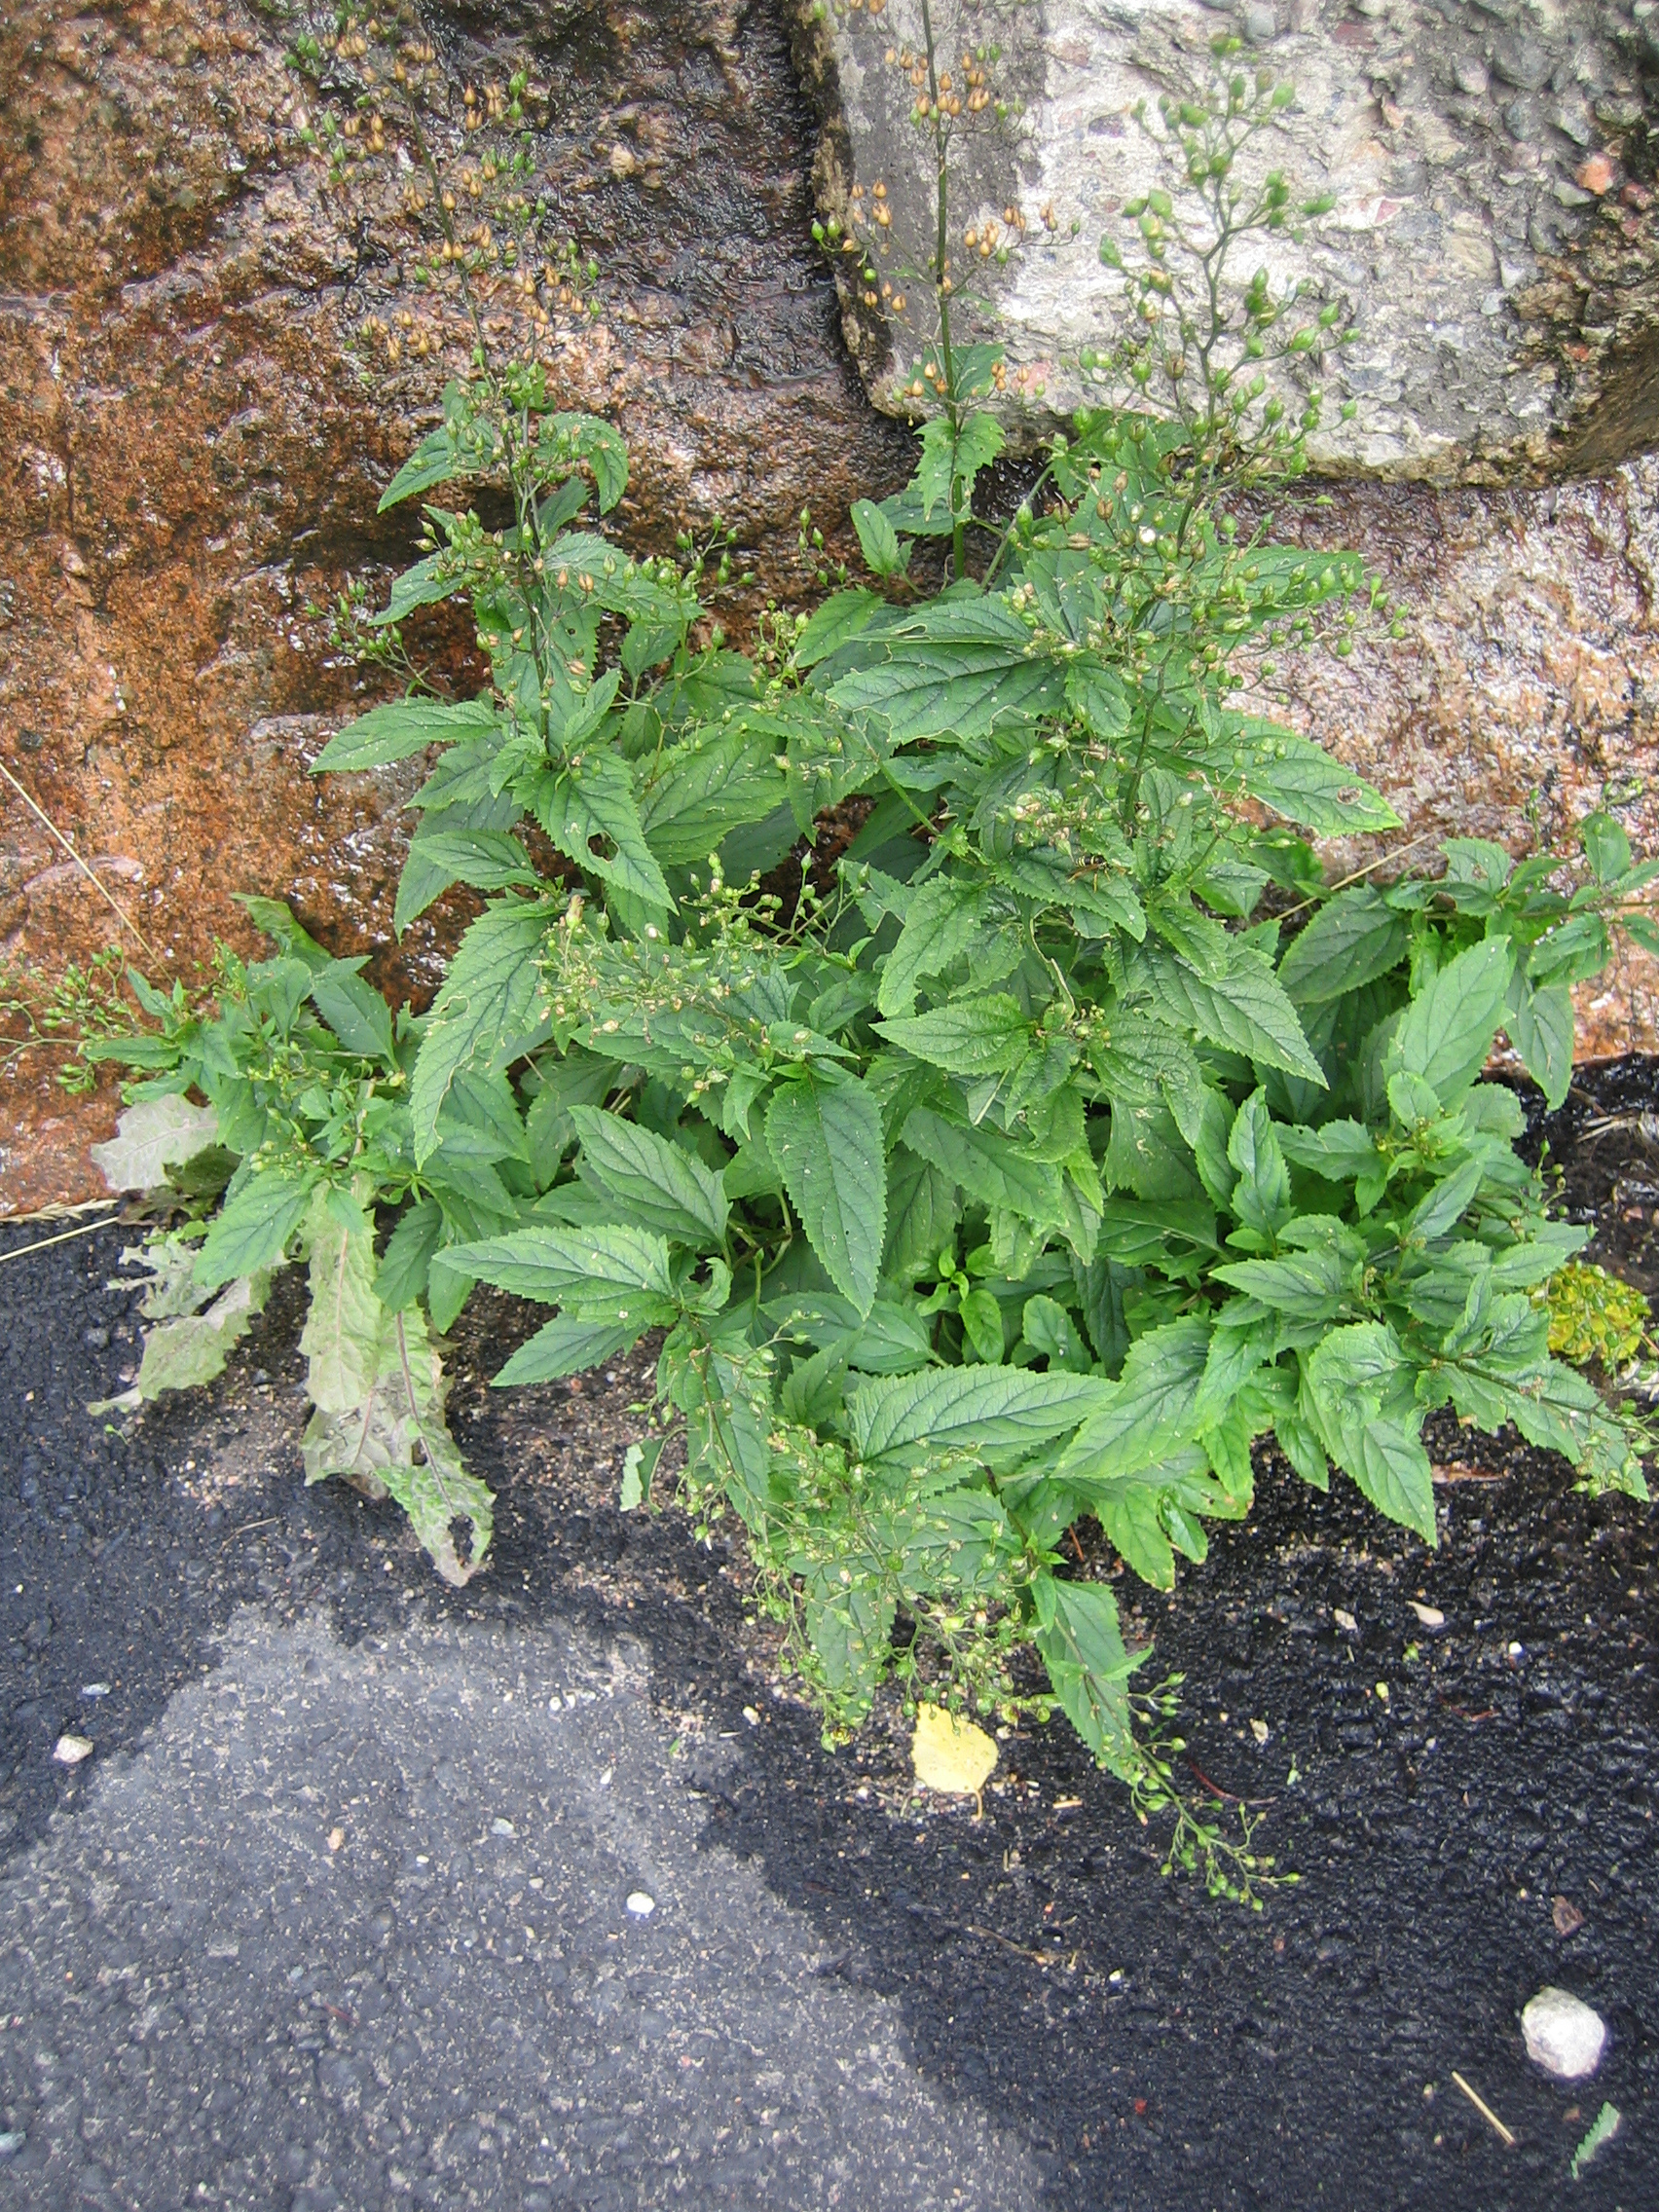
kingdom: Plantae
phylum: Tracheophyta
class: Magnoliopsida
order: Lamiales
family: Scrophulariaceae
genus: Scrophularia
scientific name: Scrophularia nodosa
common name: Common figwort
